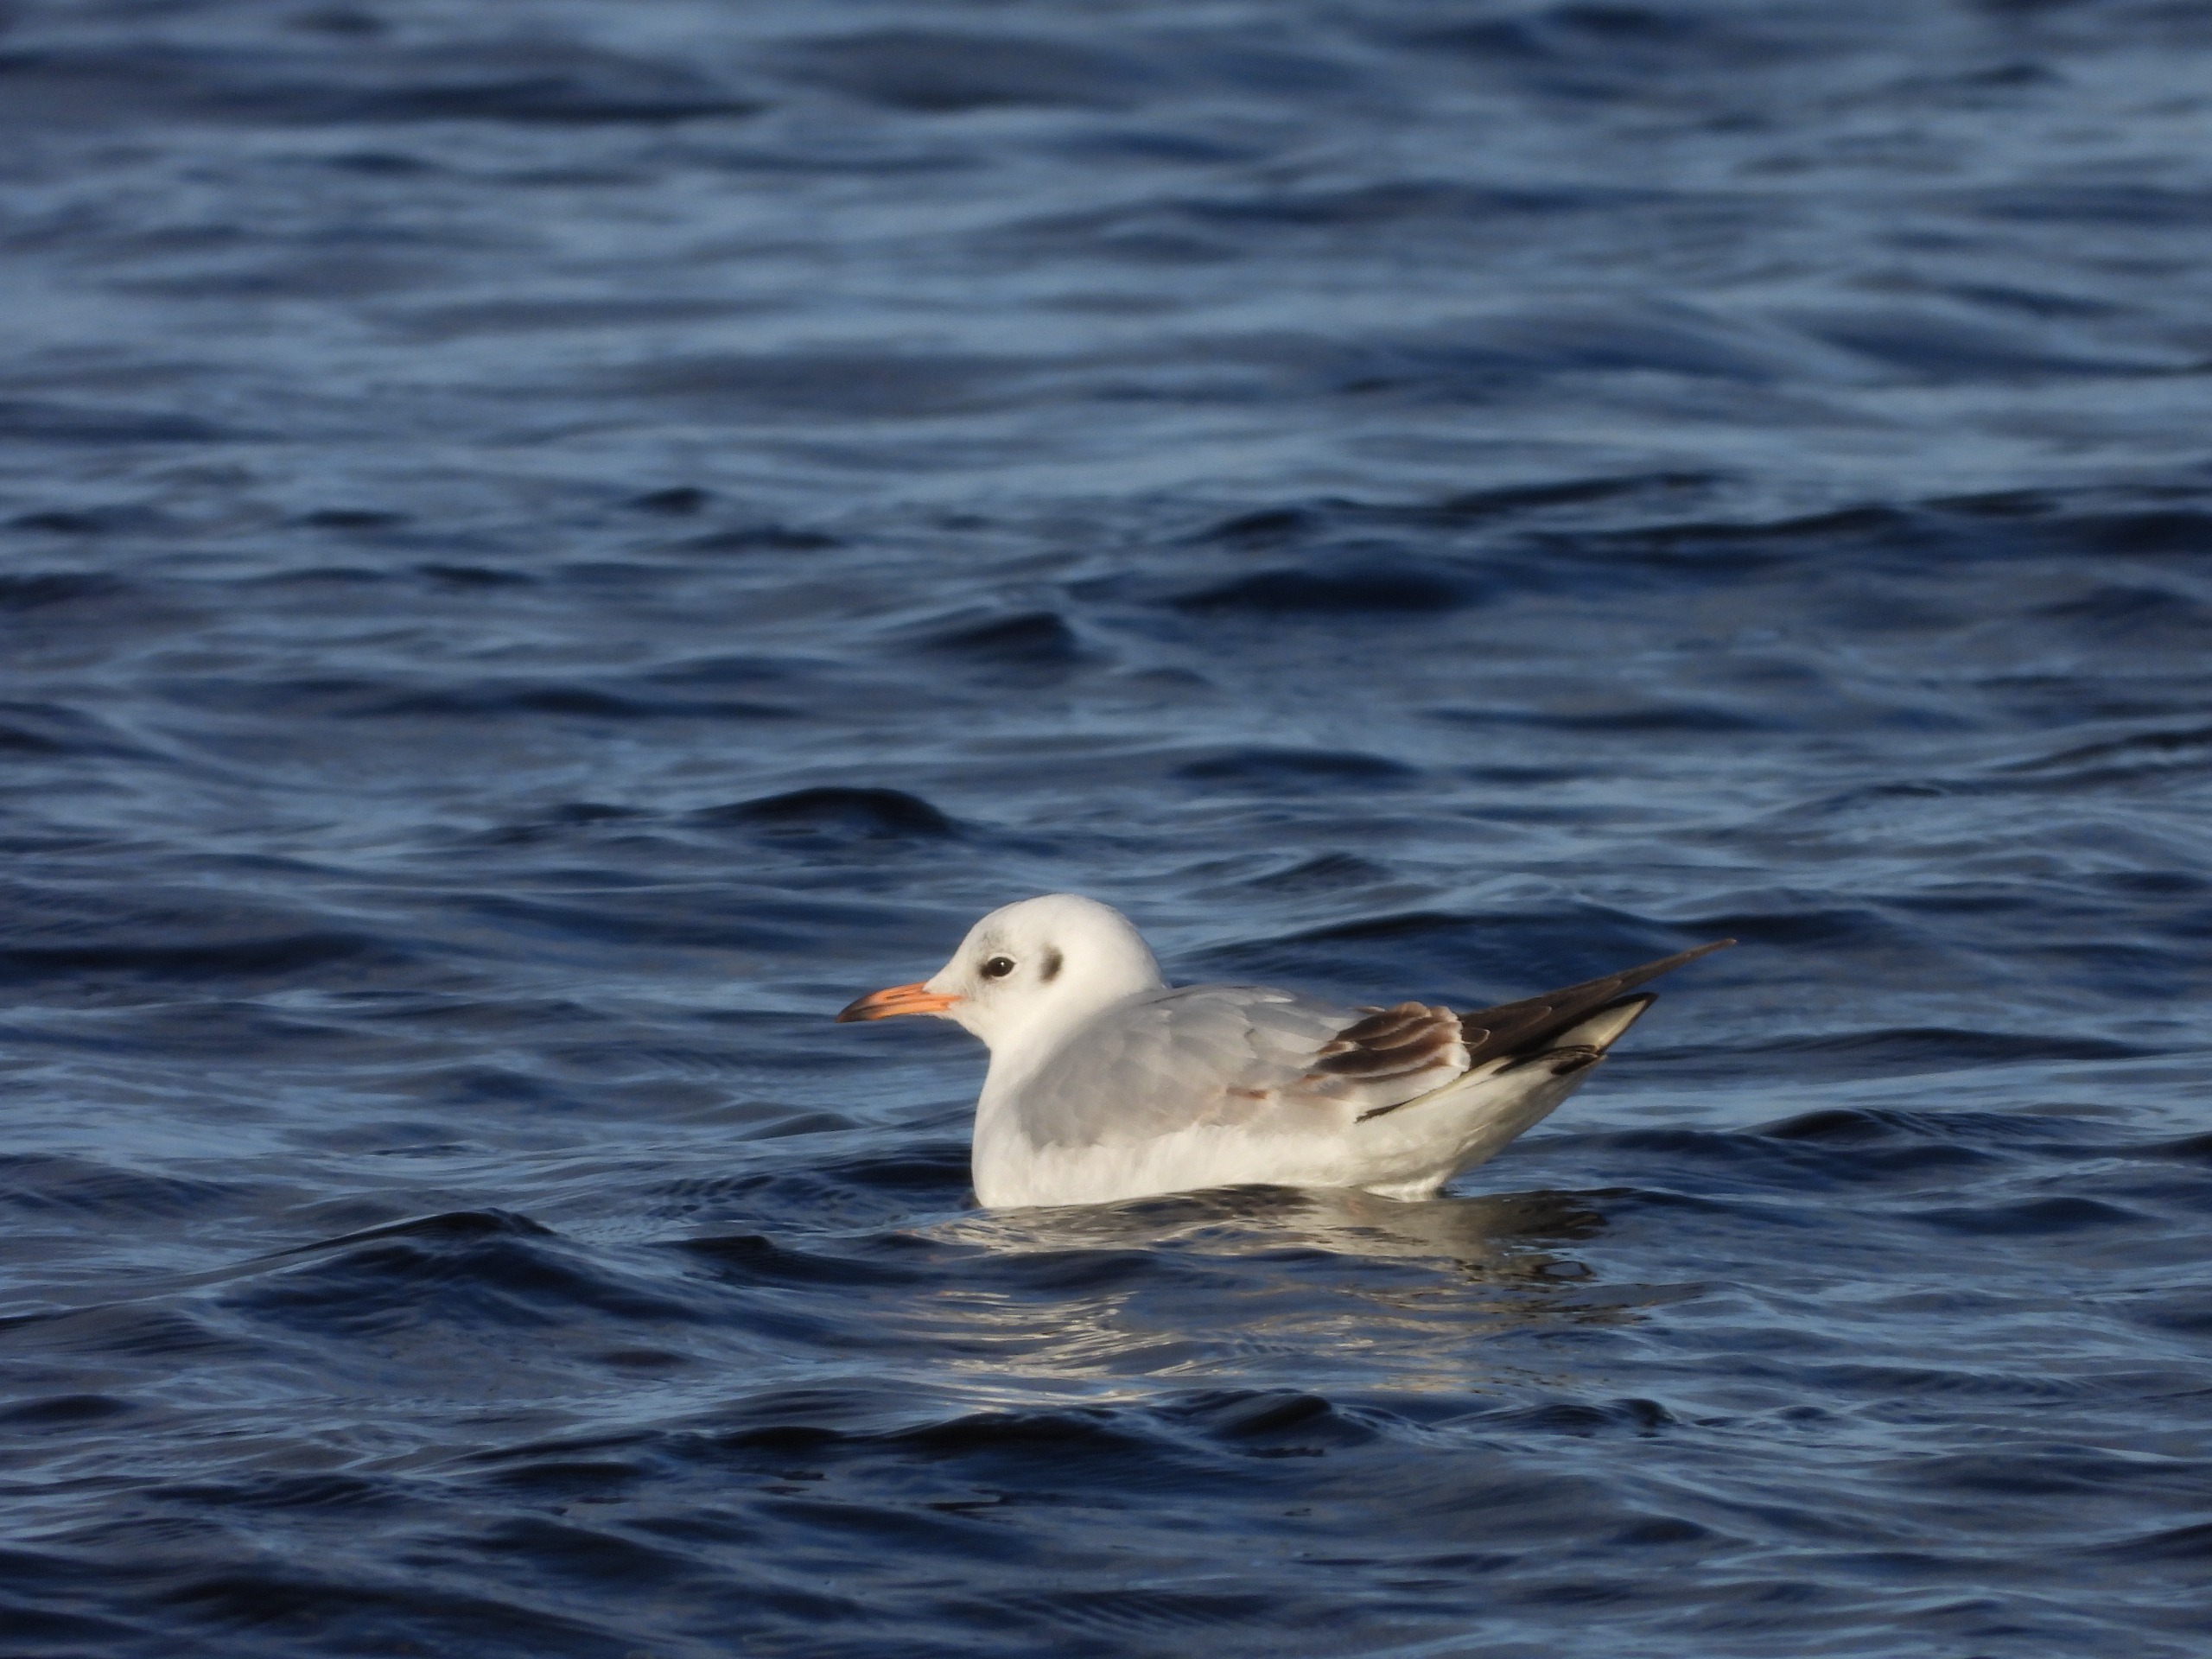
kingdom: Animalia
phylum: Chordata
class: Aves
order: Charadriiformes
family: Laridae
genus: Chroicocephalus
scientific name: Chroicocephalus ridibundus
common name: Hættemåge
